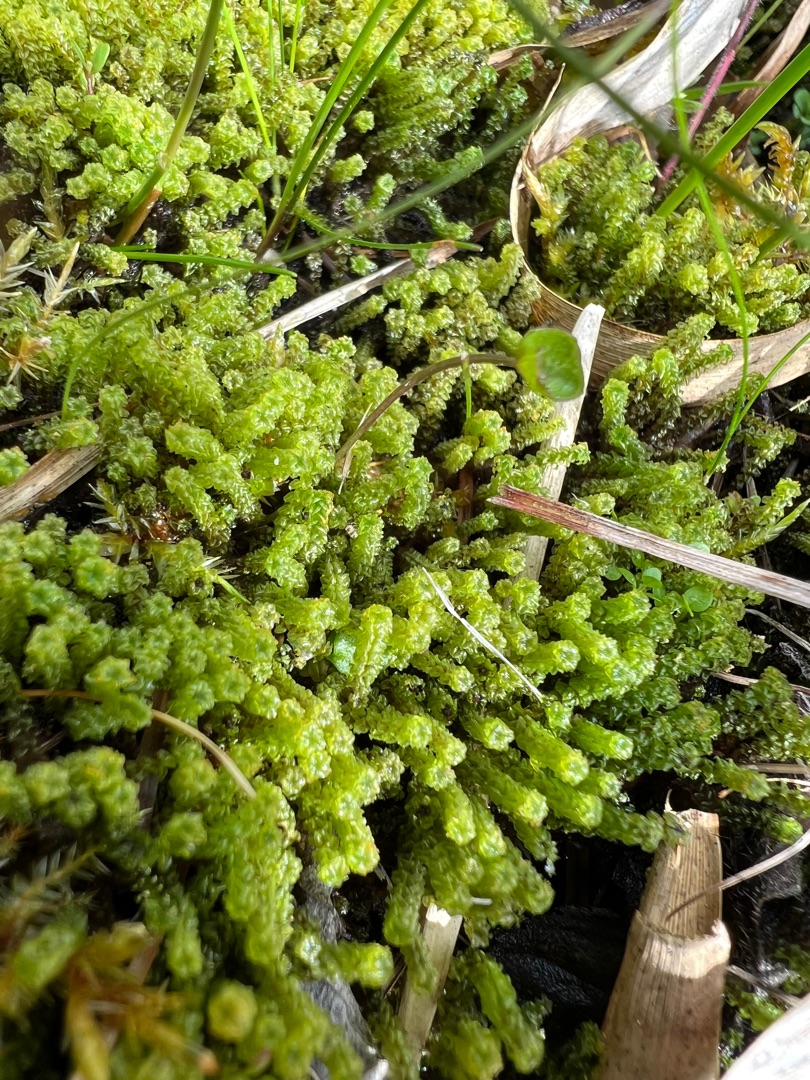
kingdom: Plantae
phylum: Bryophyta
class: Bryopsida
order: Splachnales
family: Meesiaceae
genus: Paludella
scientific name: Paludella squarrosa
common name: Almindelig piberensermos
